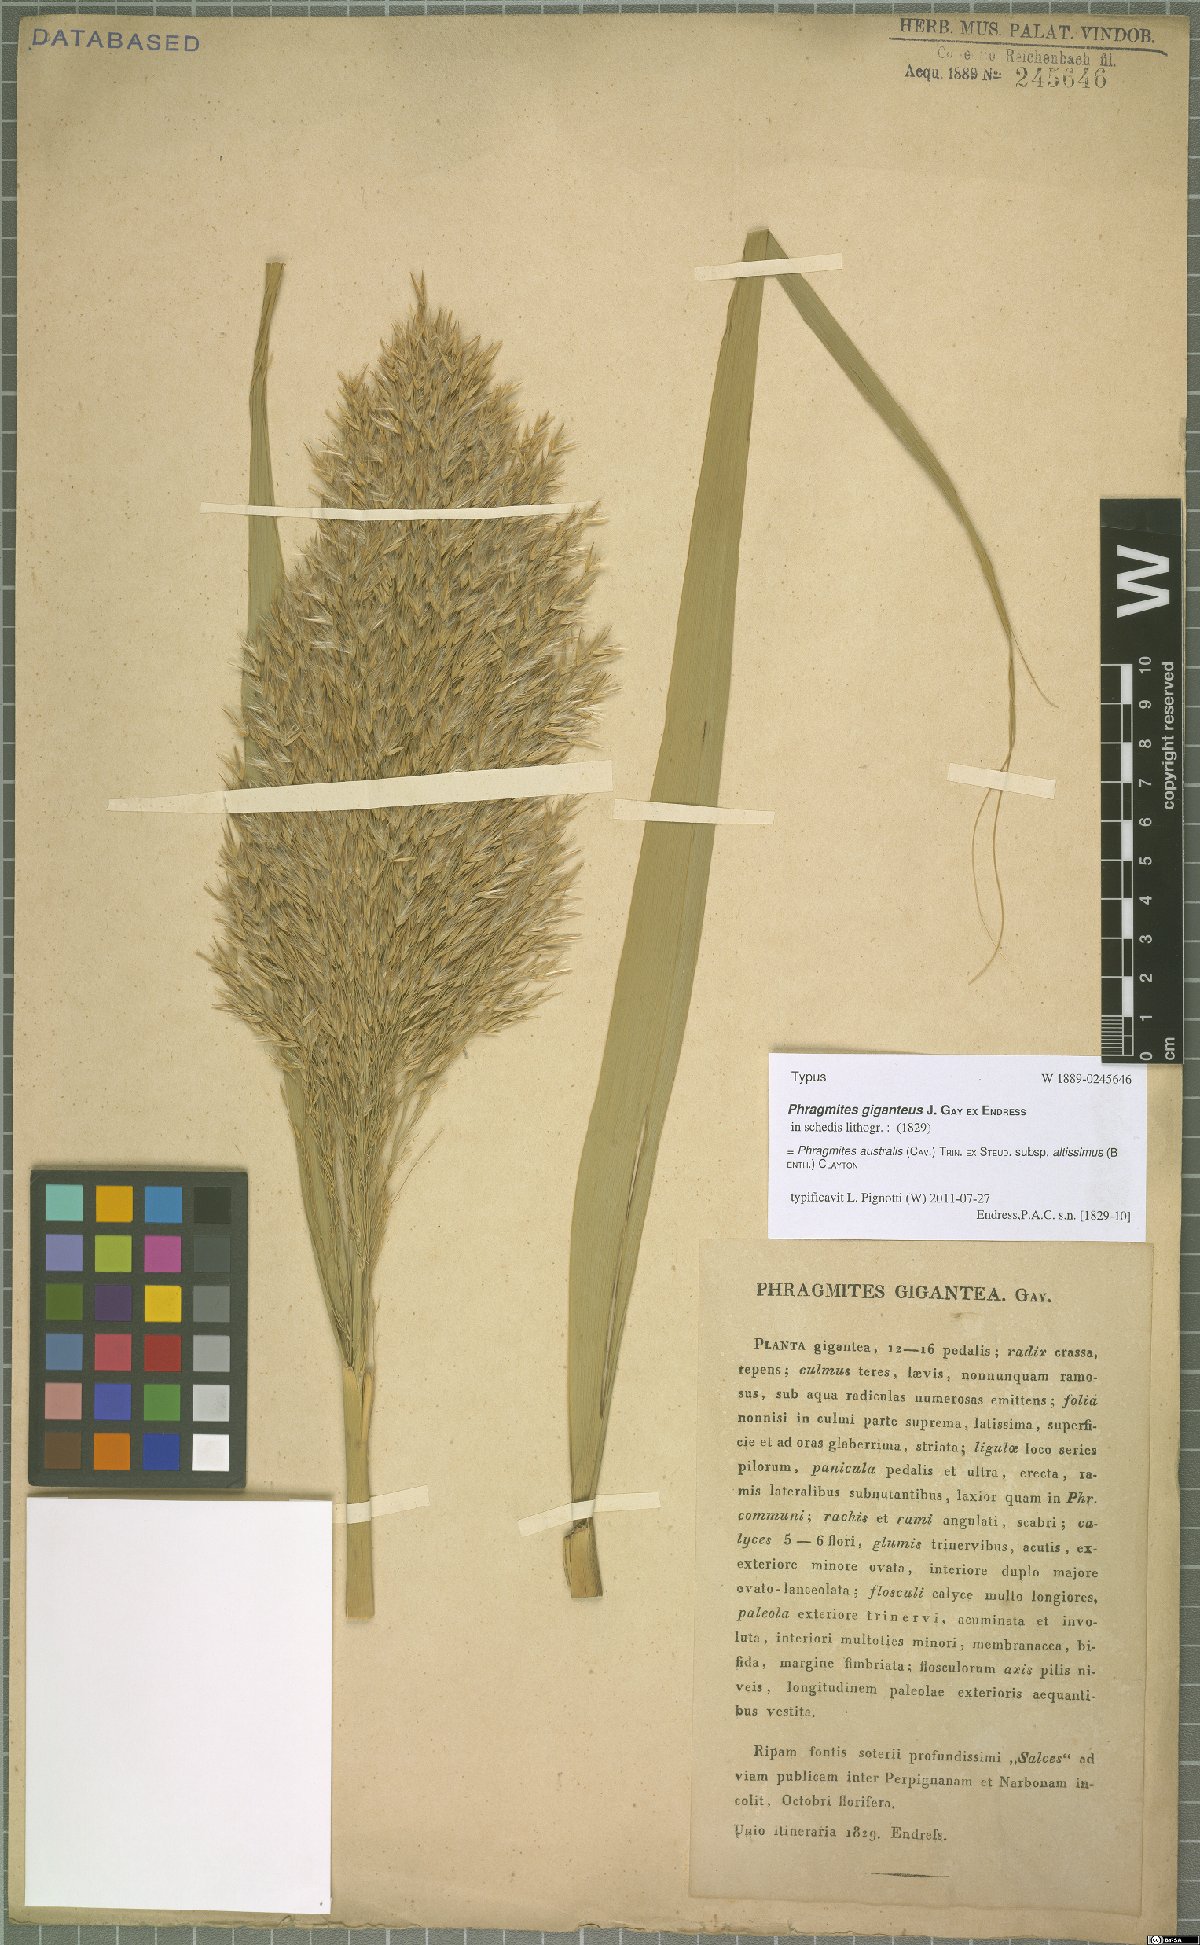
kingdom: Plantae
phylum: Tracheophyta
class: Liliopsida
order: Poales
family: Poaceae
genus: Phragmites
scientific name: Phragmites australis
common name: Common reed
